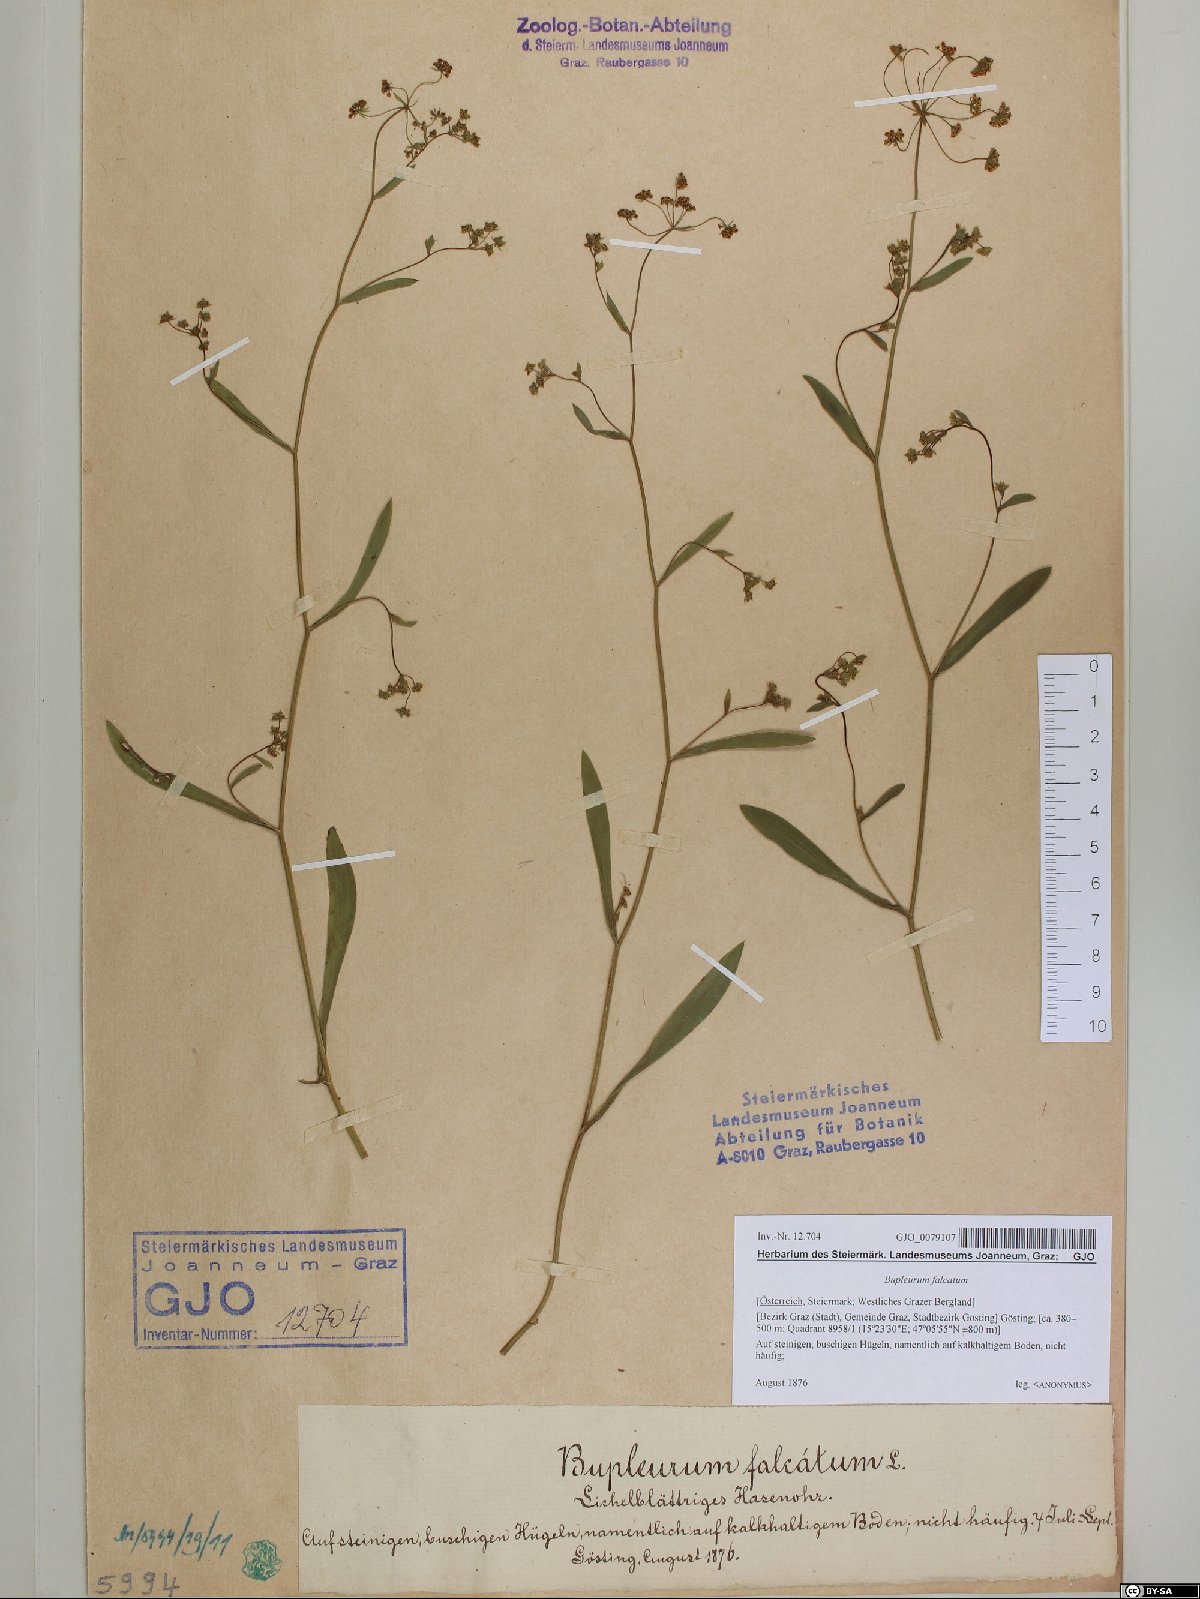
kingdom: Plantae
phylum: Tracheophyta
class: Magnoliopsida
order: Apiales
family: Apiaceae
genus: Bupleurum
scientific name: Bupleurum falcatum
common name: Sickle-leaved hare's-ear
